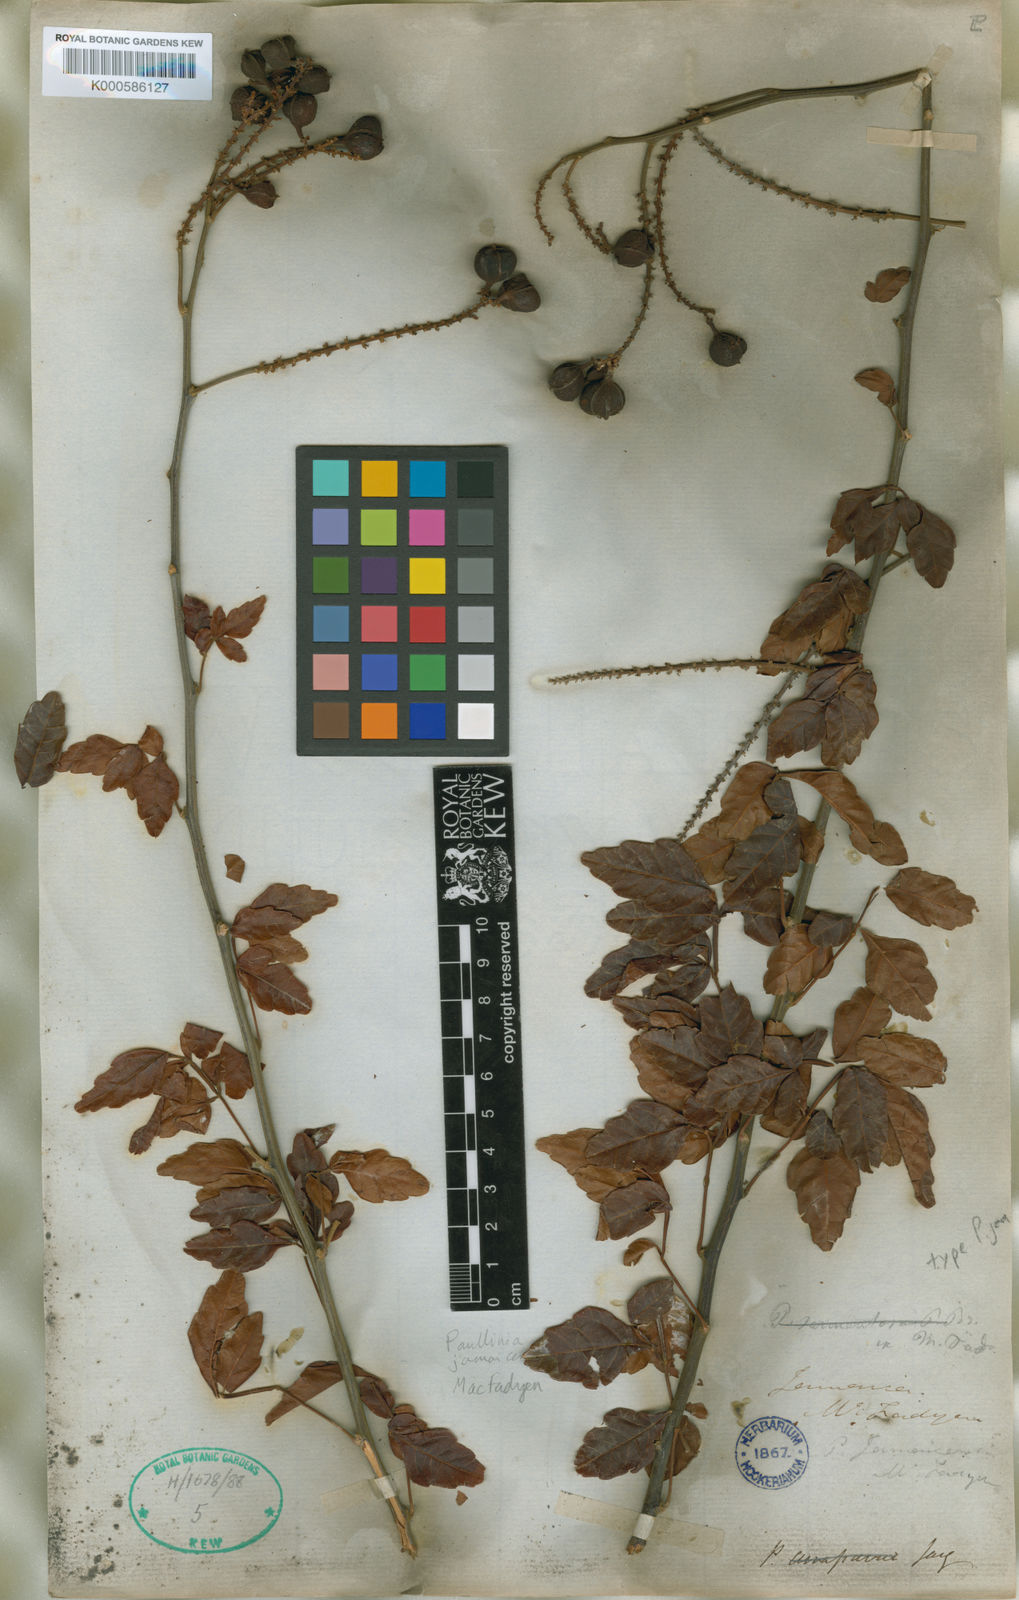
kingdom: Plantae
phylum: Tracheophyta
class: Magnoliopsida
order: Sapindales
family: Sapindaceae
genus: Paullinia
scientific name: Paullinia jamaicensis
